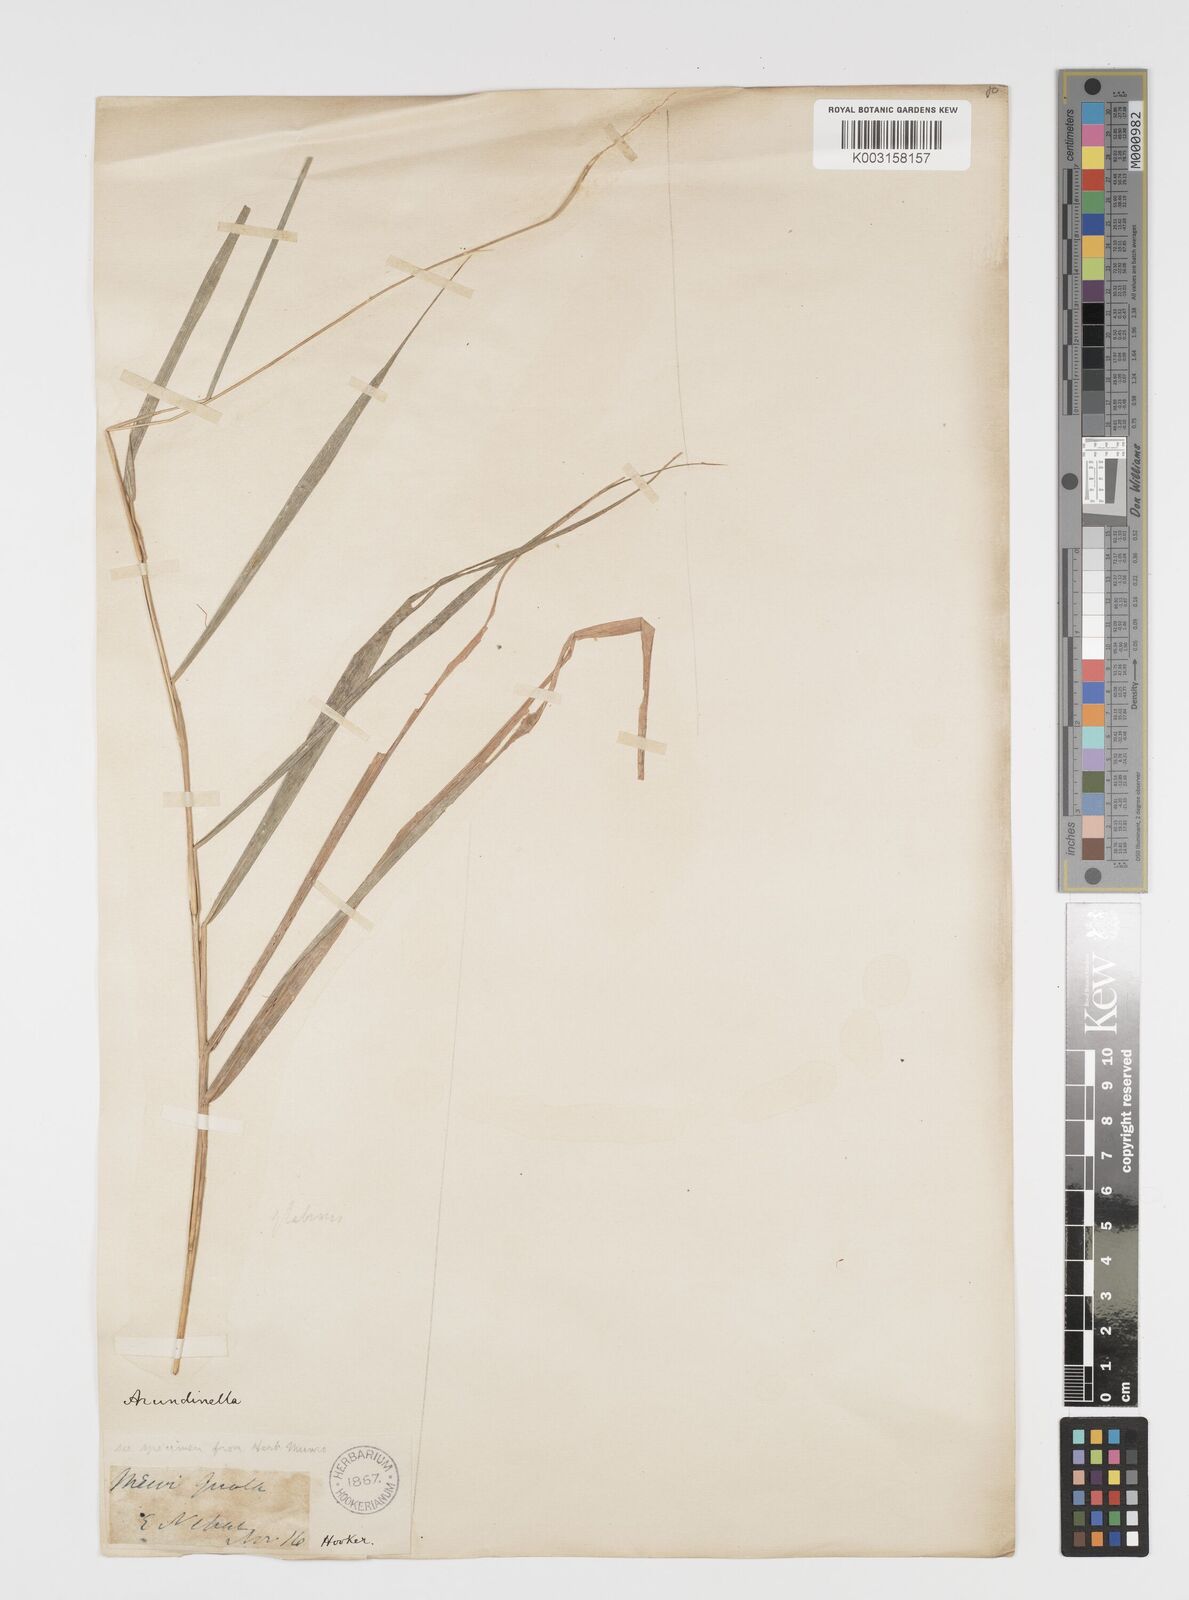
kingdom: Plantae
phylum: Tracheophyta
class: Liliopsida
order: Poales
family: Poaceae
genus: Arundinella
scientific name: Arundinella nepalensis
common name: Reed grass
